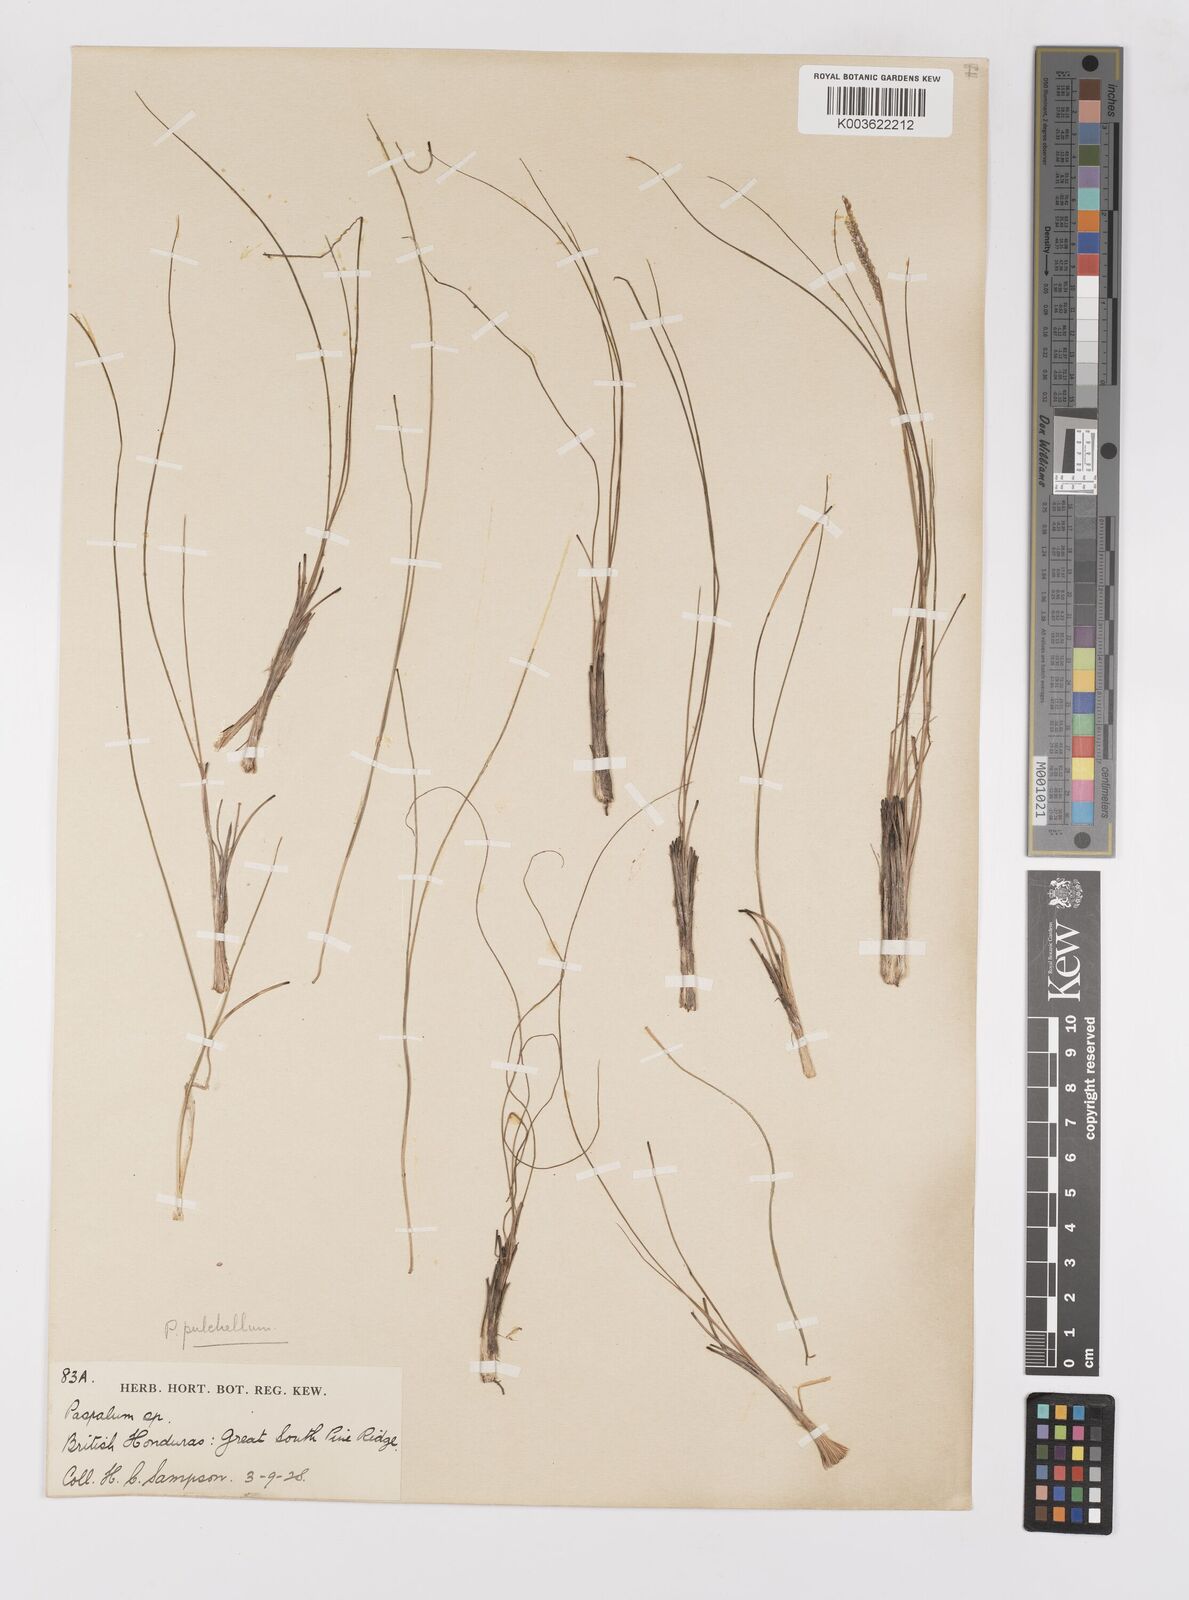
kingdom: Plantae
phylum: Tracheophyta
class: Liliopsida
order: Poales
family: Poaceae
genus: Paspalum
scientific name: Paspalum pulchellum
